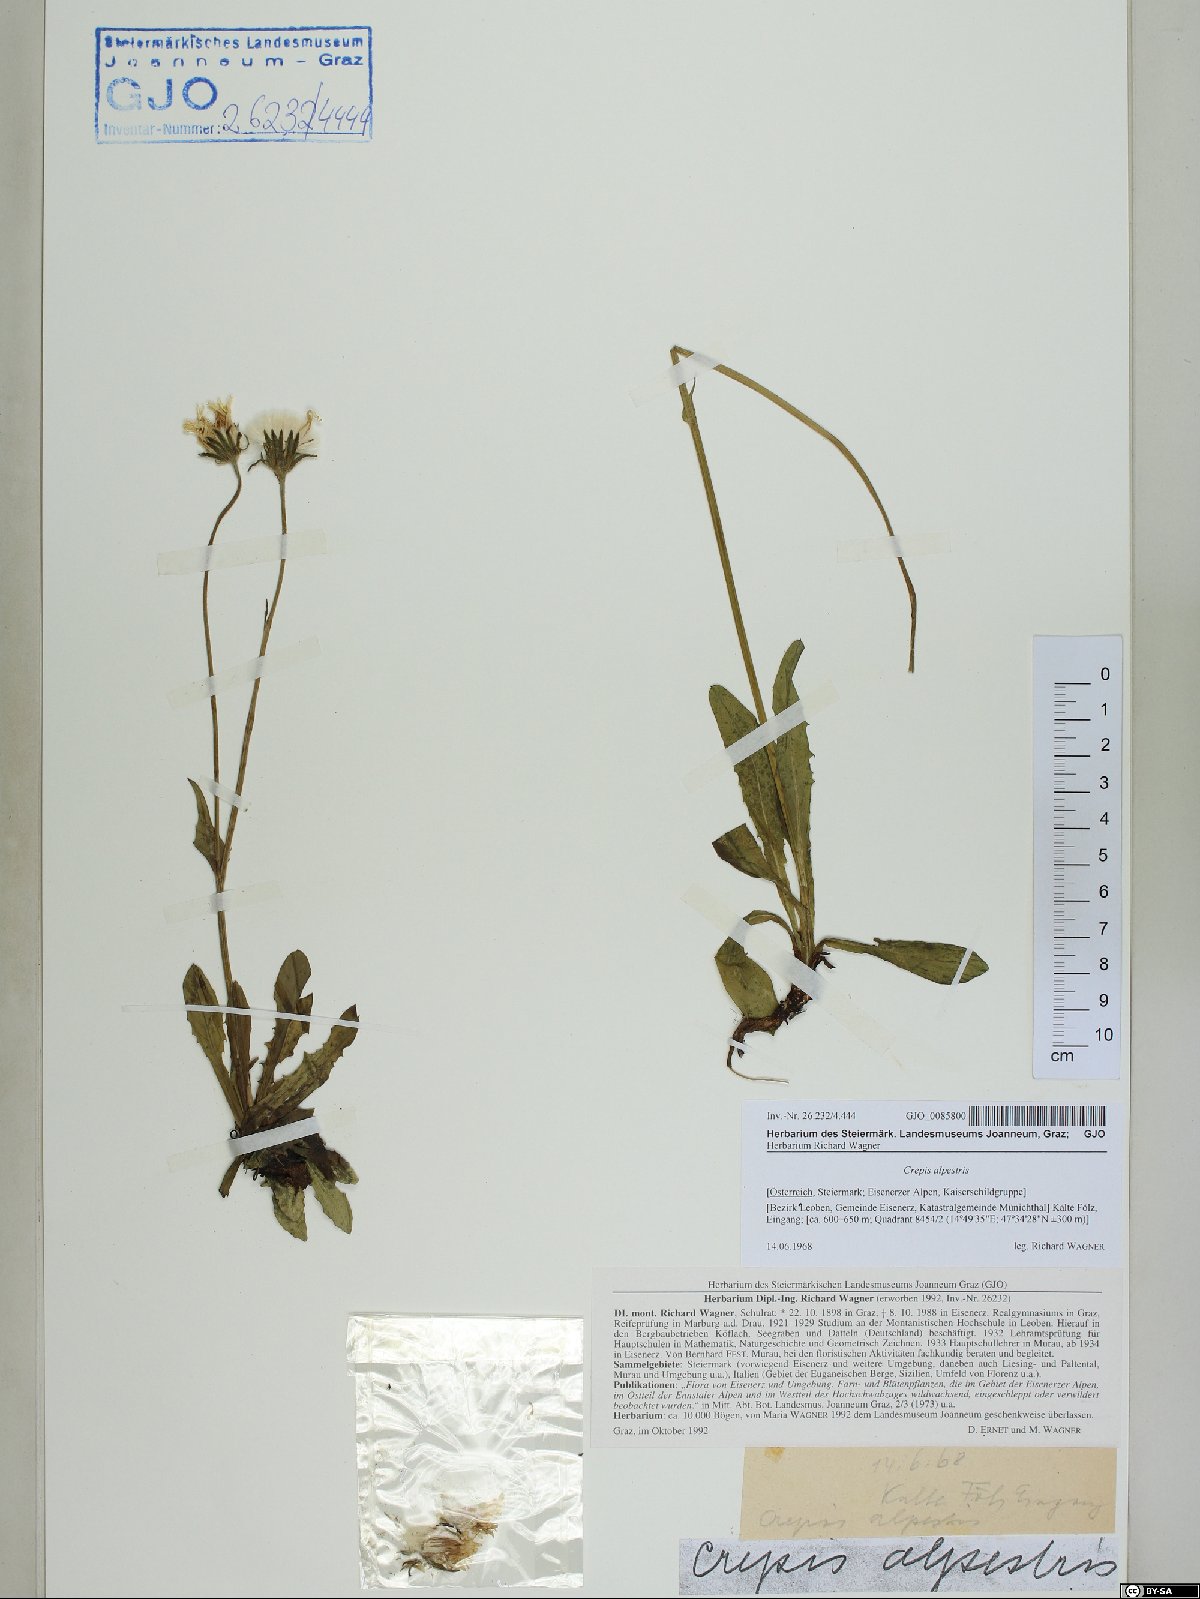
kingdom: Plantae
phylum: Tracheophyta
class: Magnoliopsida
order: Asterales
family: Asteraceae
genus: Crepis
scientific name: Crepis alpestris
